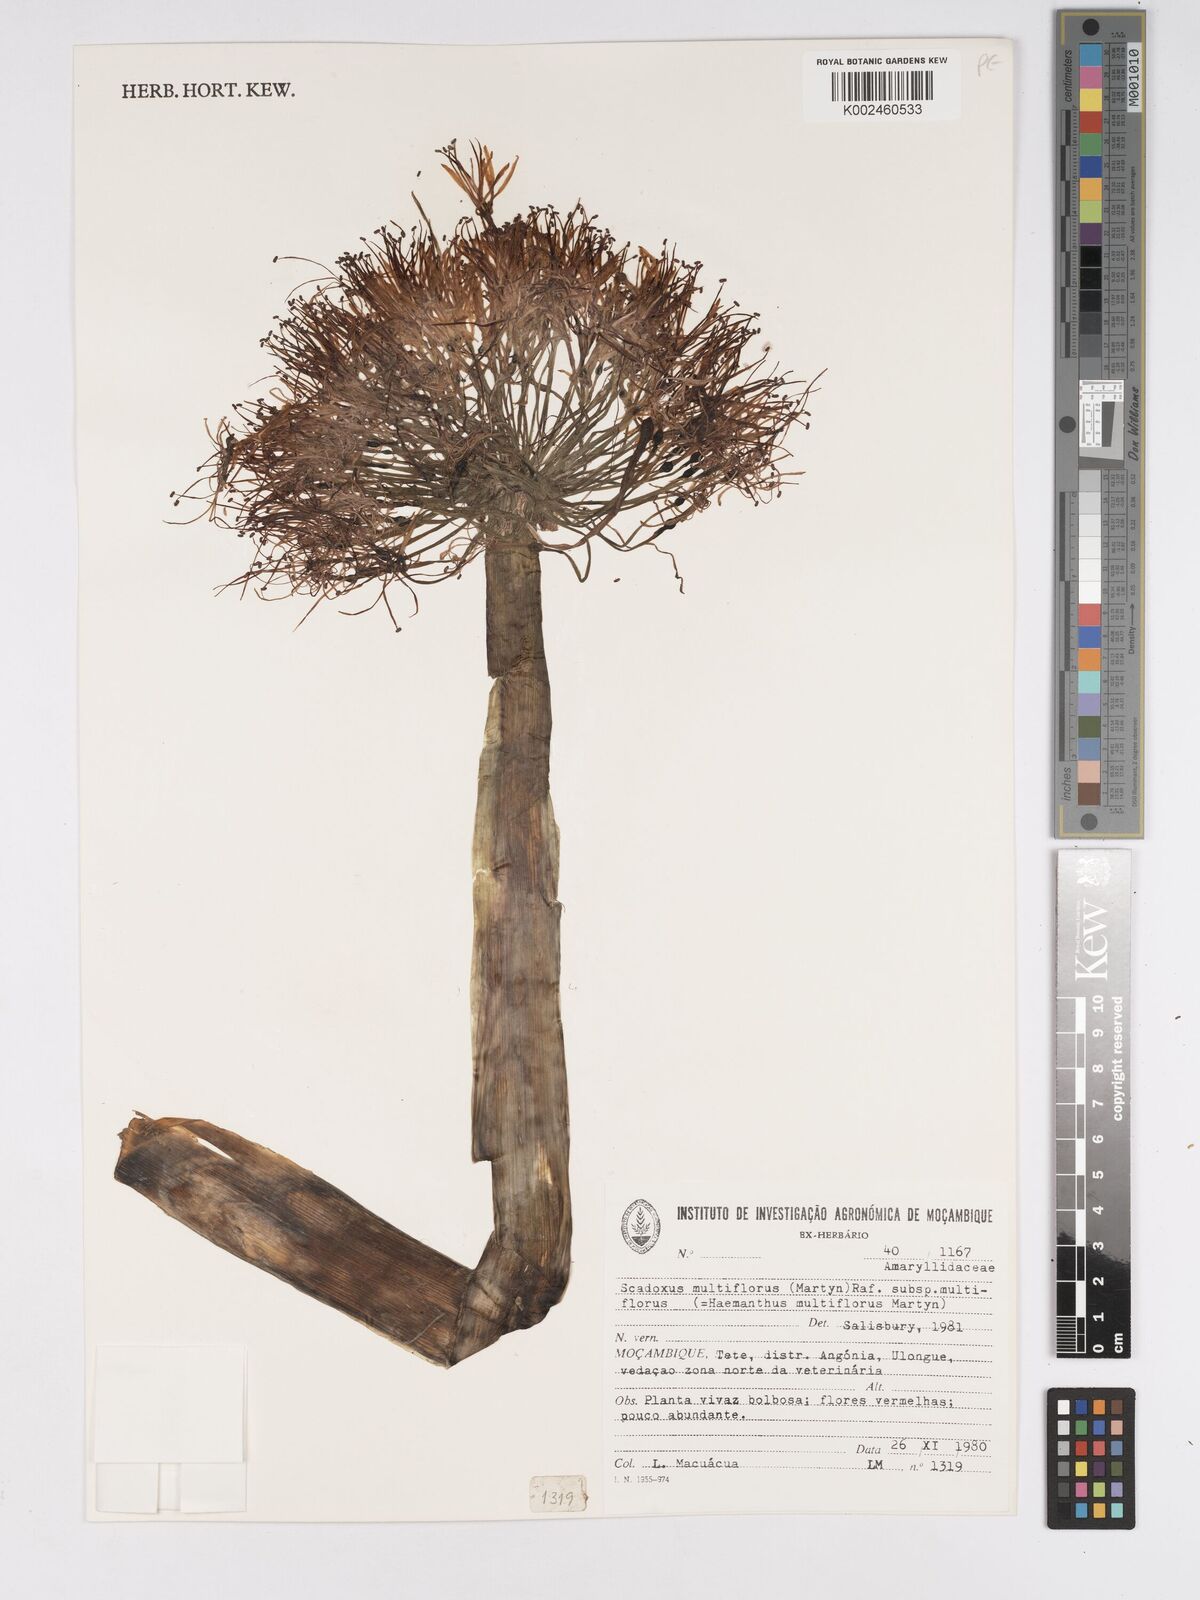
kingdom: Plantae
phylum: Tracheophyta
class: Liliopsida
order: Asparagales
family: Amaryllidaceae
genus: Scadoxus
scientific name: Scadoxus multiflorus
